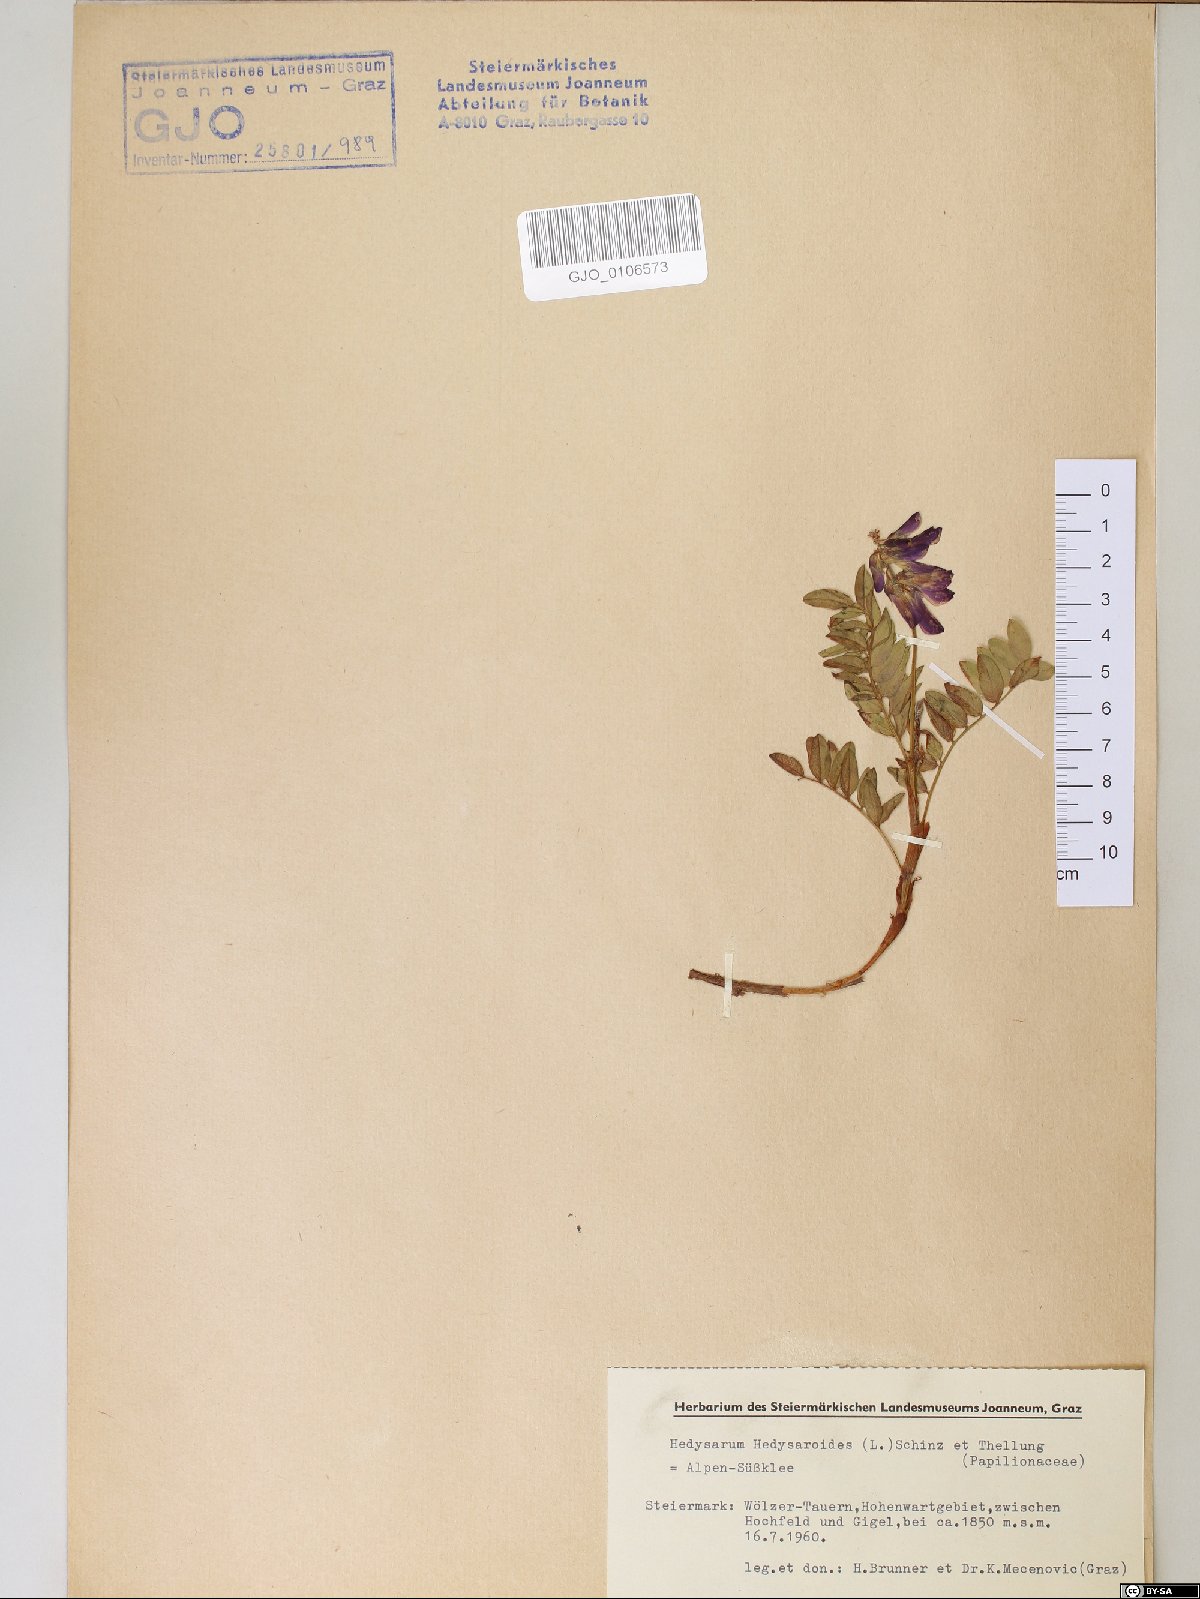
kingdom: Plantae
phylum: Tracheophyta
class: Magnoliopsida
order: Fabales
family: Fabaceae
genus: Hedysarum
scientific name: Hedysarum hedysaroides
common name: Alpine french-honeysuckle
